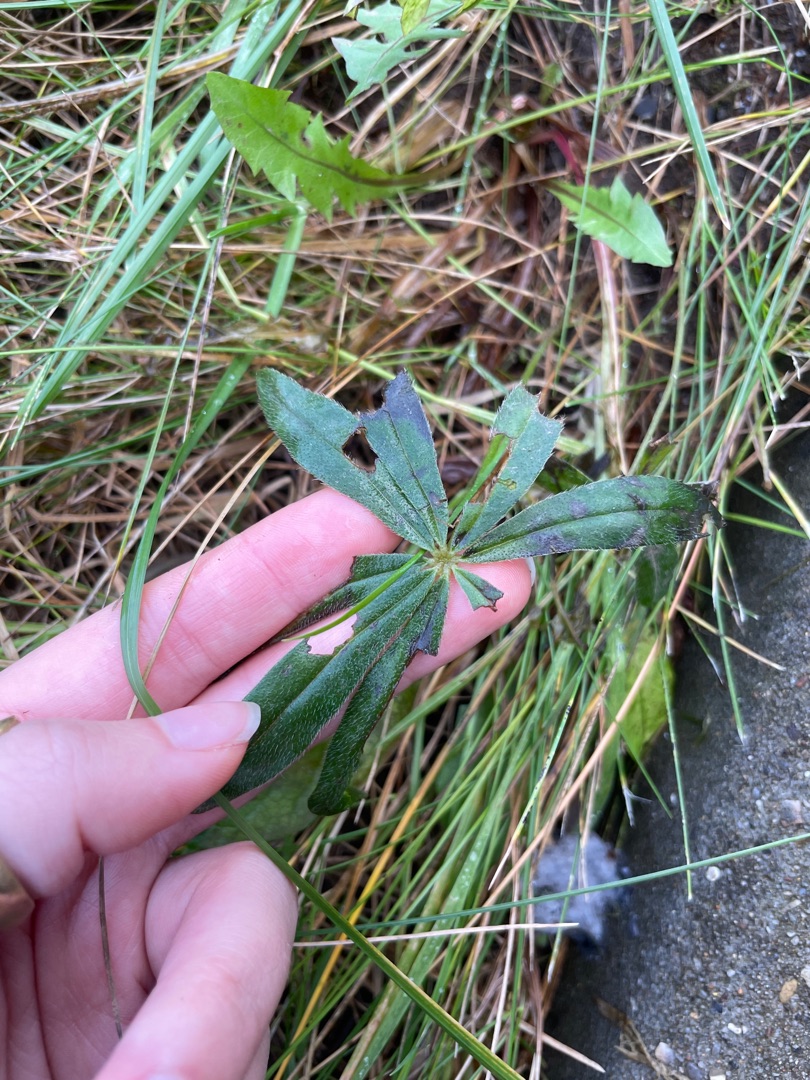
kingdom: Plantae
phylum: Tracheophyta
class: Magnoliopsida
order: Fabales
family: Fabaceae
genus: Lupinus
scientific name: Lupinus polyphyllus
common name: Mangebladet lupin
